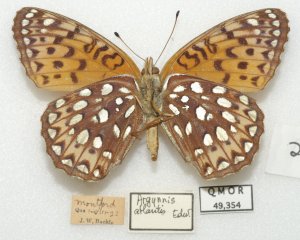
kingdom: Animalia
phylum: Arthropoda
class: Insecta
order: Lepidoptera
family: Nymphalidae
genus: Speyeria
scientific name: Speyeria atlantis
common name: Atlantis Fritillary
